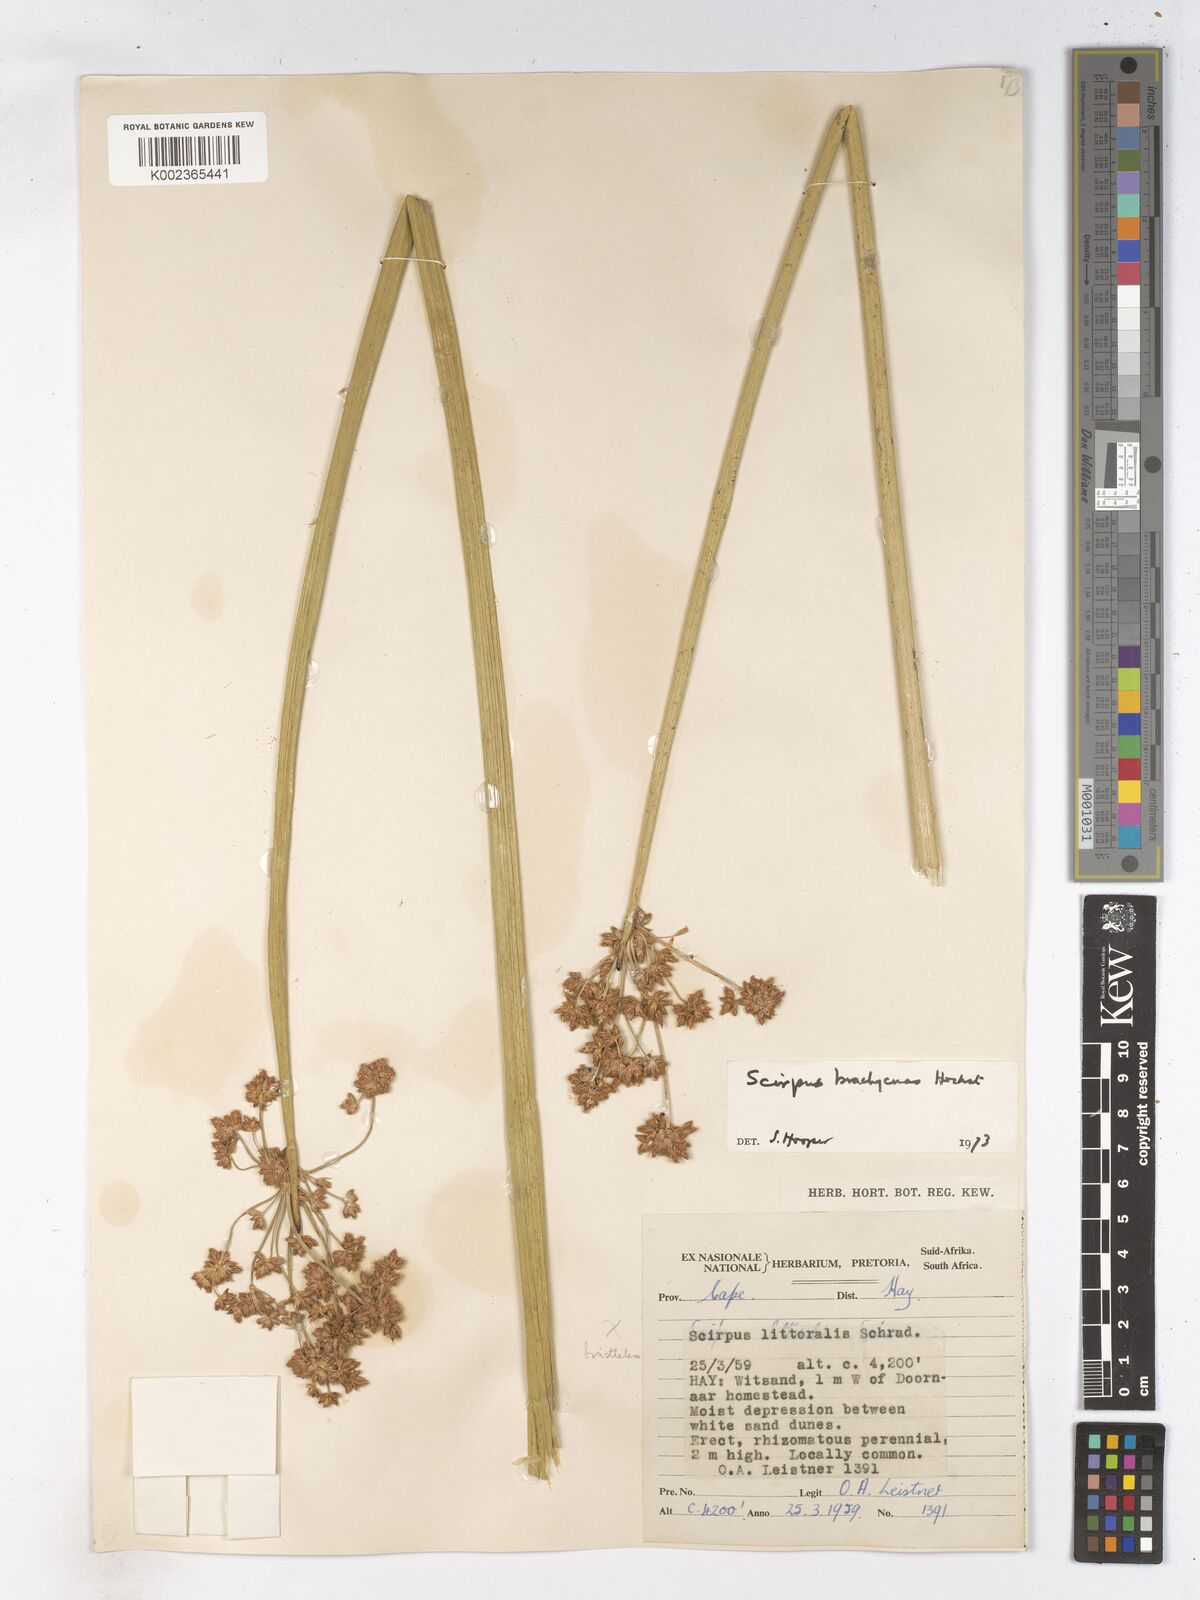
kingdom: Plantae
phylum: Tracheophyta
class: Liliopsida
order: Poales
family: Cyperaceae
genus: Schoenoplectiella
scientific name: Schoenoplectiella brachyceras
